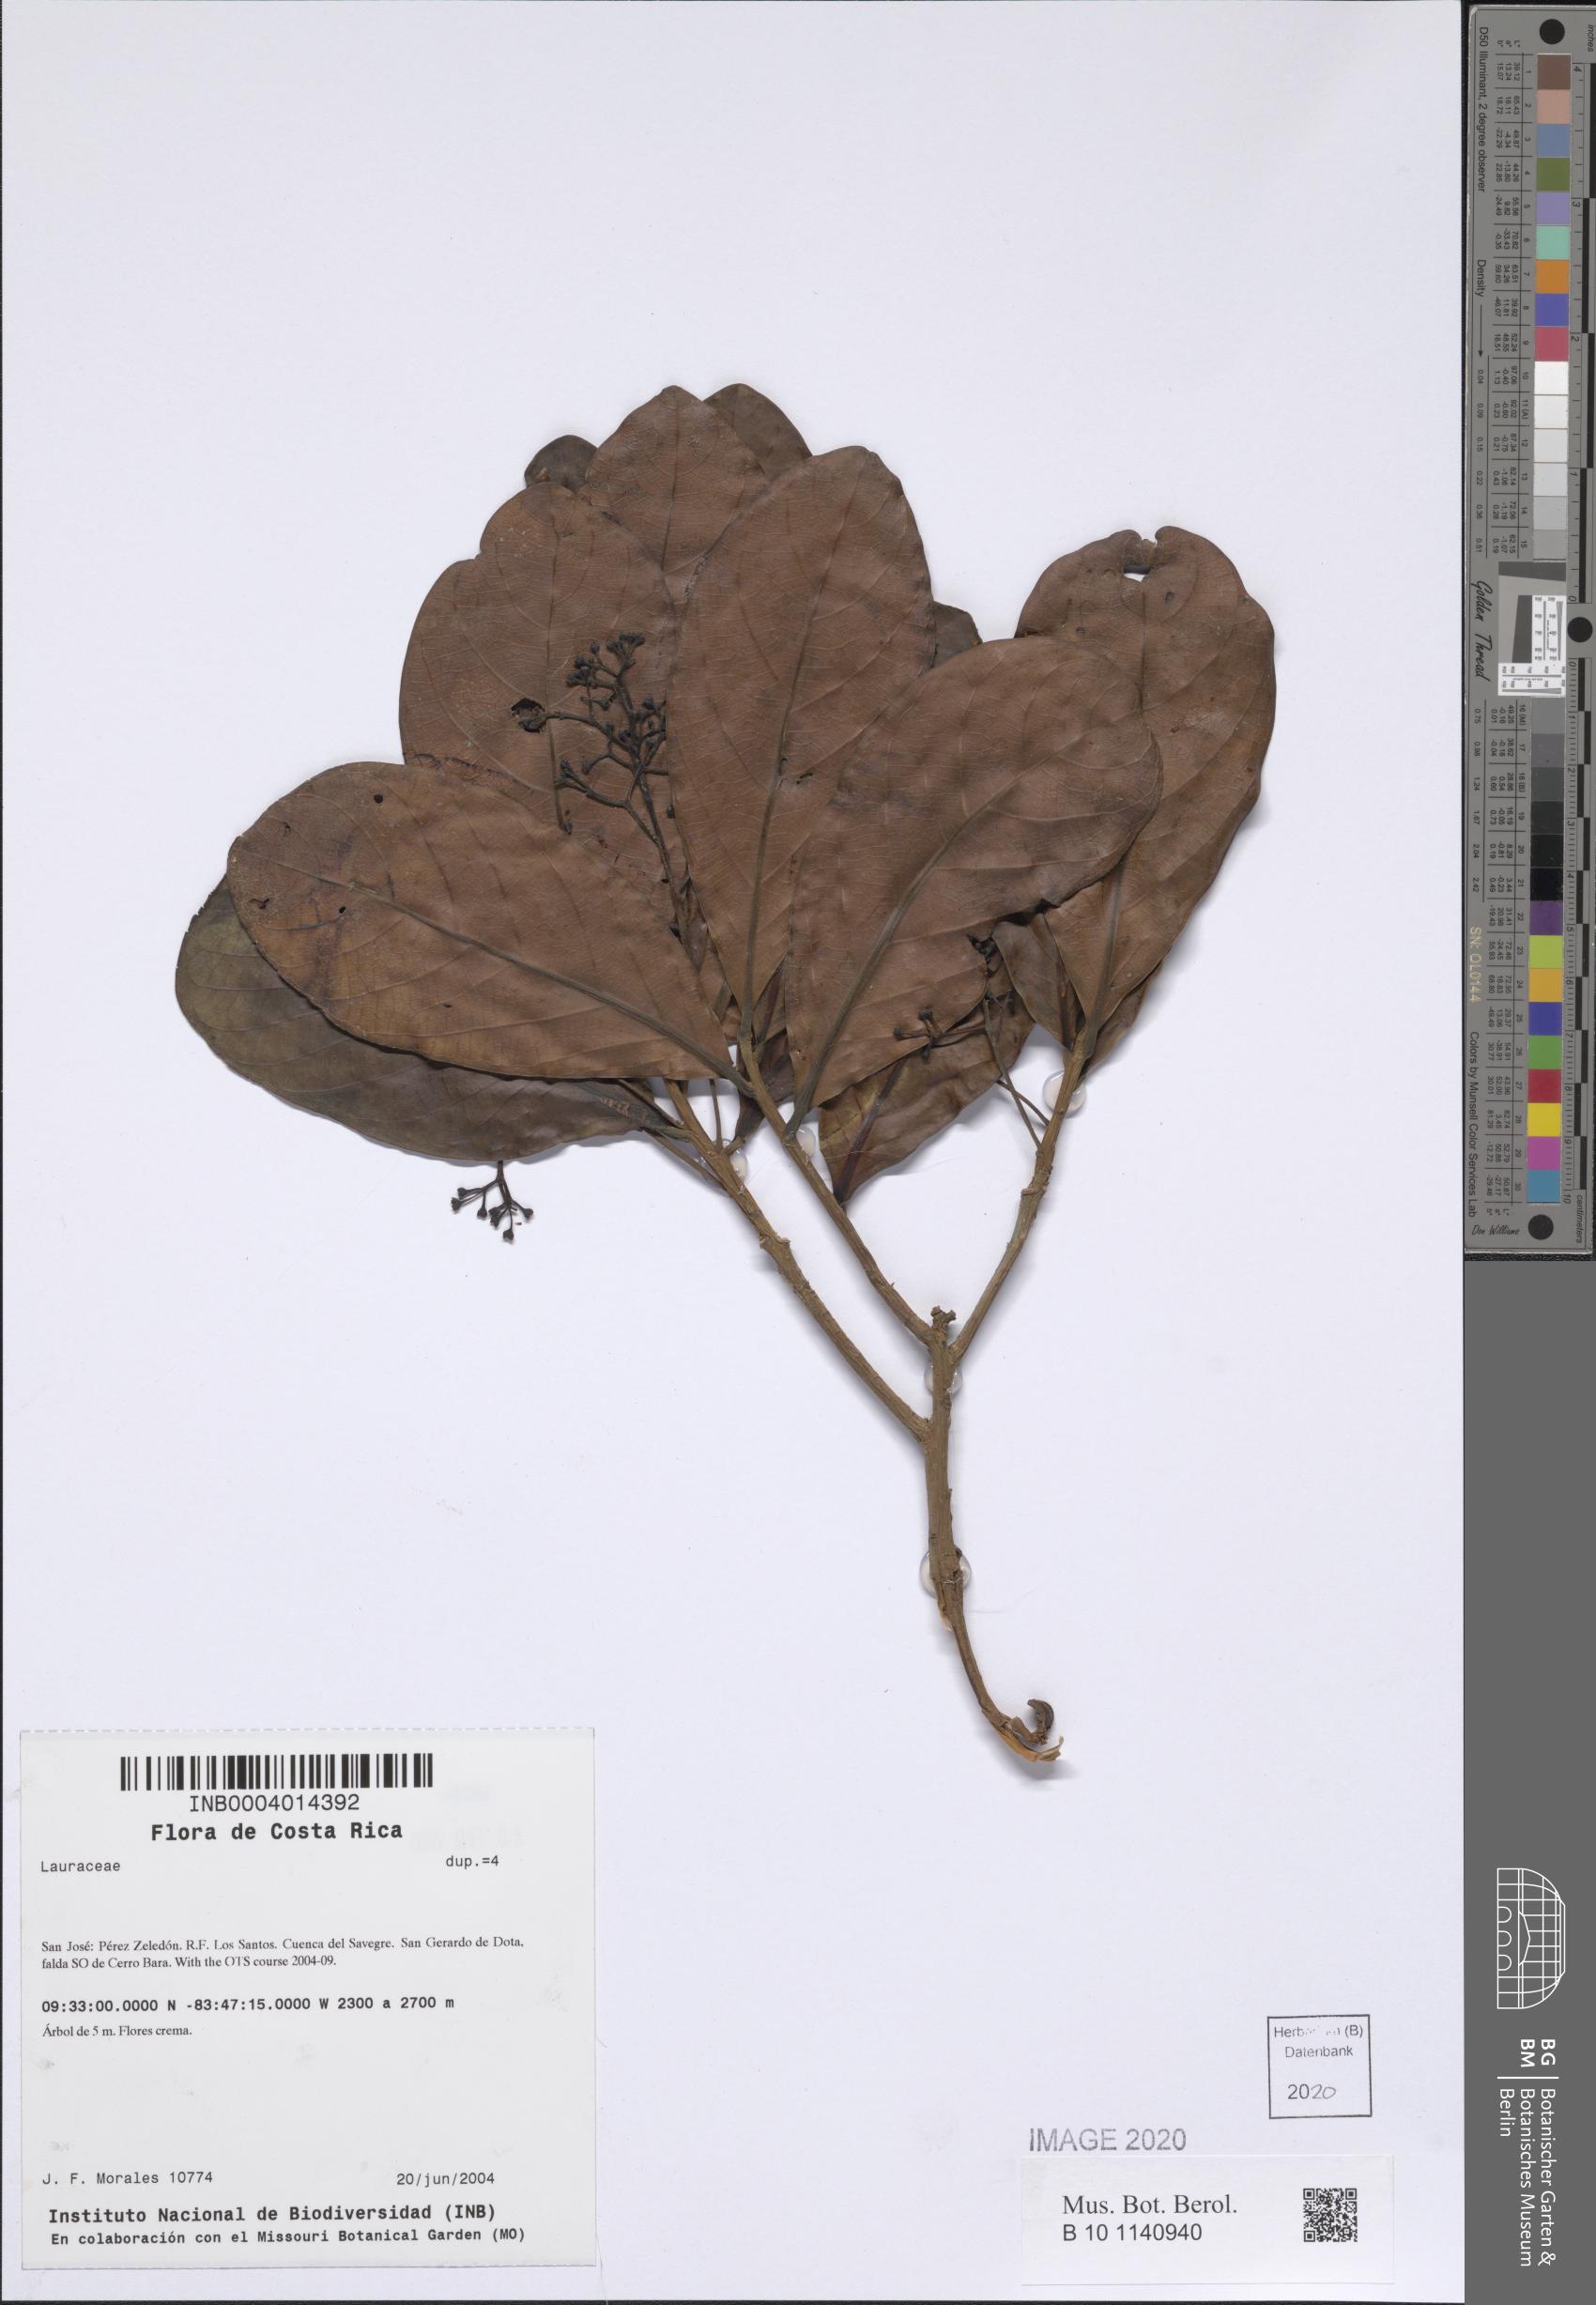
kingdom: Plantae
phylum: Tracheophyta
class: Magnoliopsida
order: Laurales
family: Lauraceae
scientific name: Lauraceae
